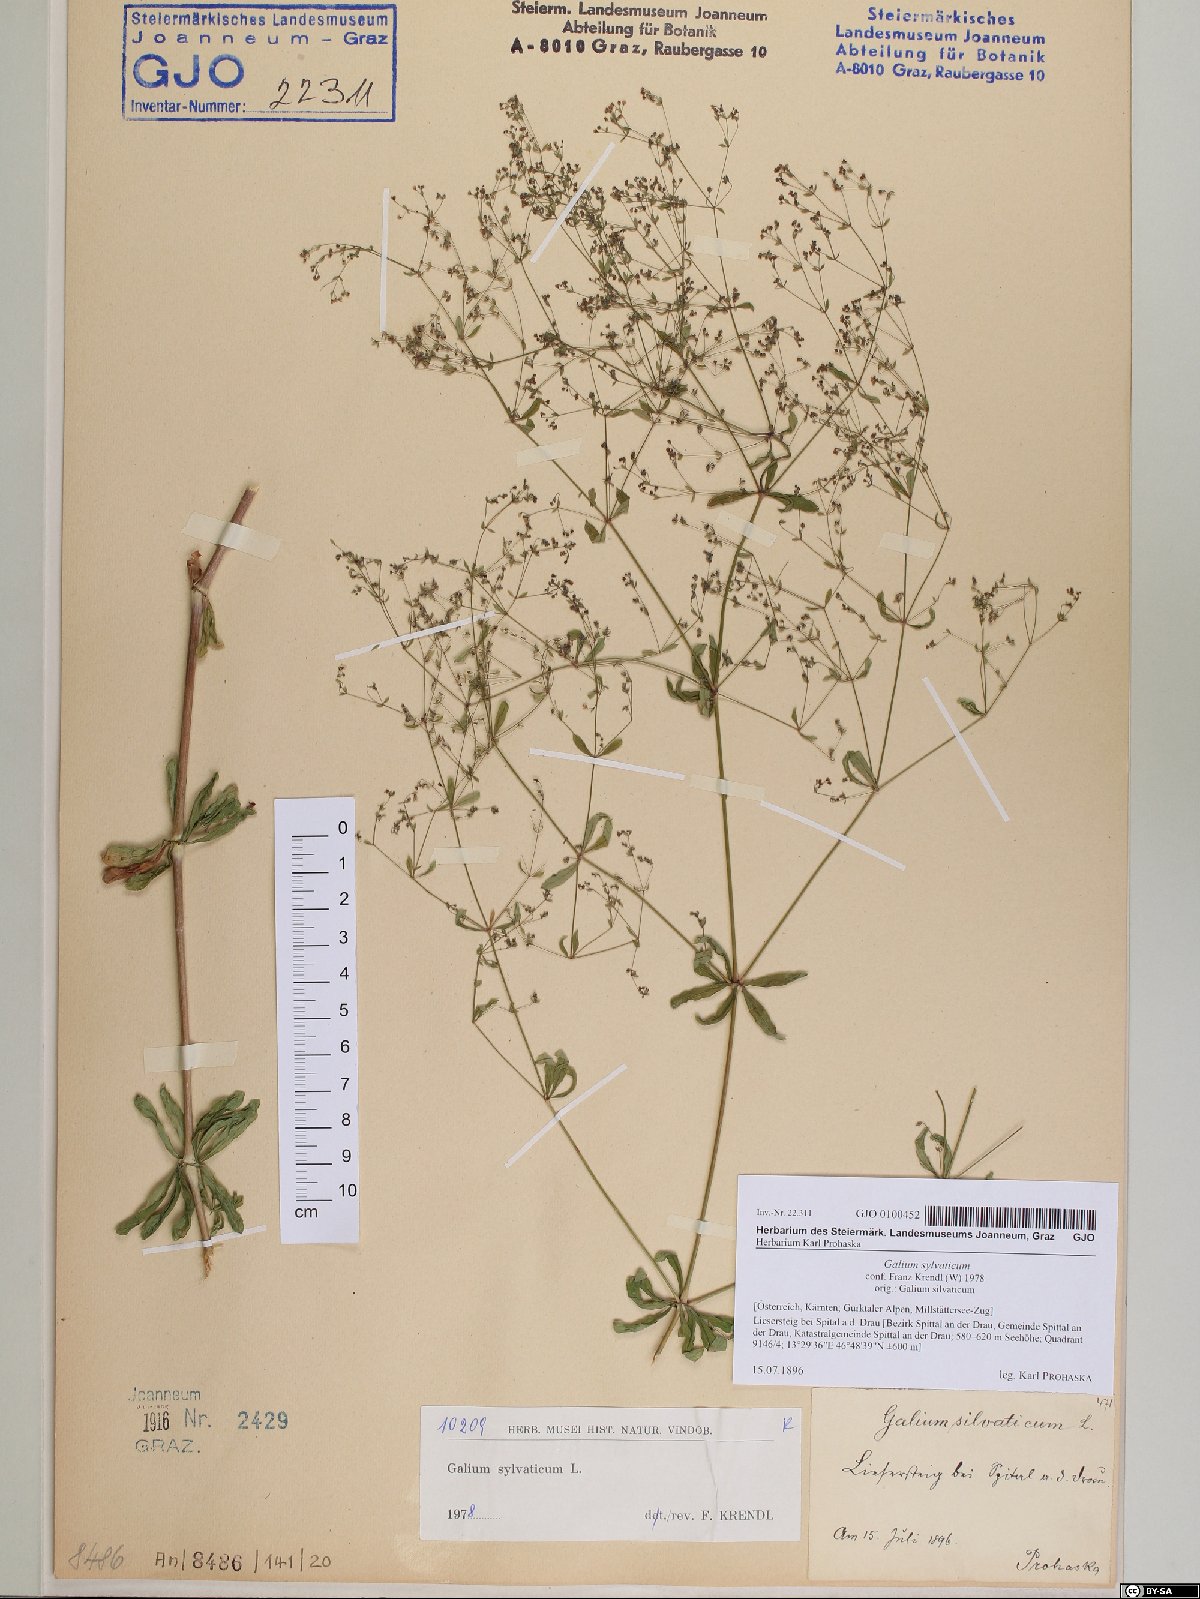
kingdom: Plantae
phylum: Tracheophyta
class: Magnoliopsida
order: Gentianales
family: Rubiaceae
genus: Galium
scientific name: Galium sylvaticum
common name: Wood bedstraw
